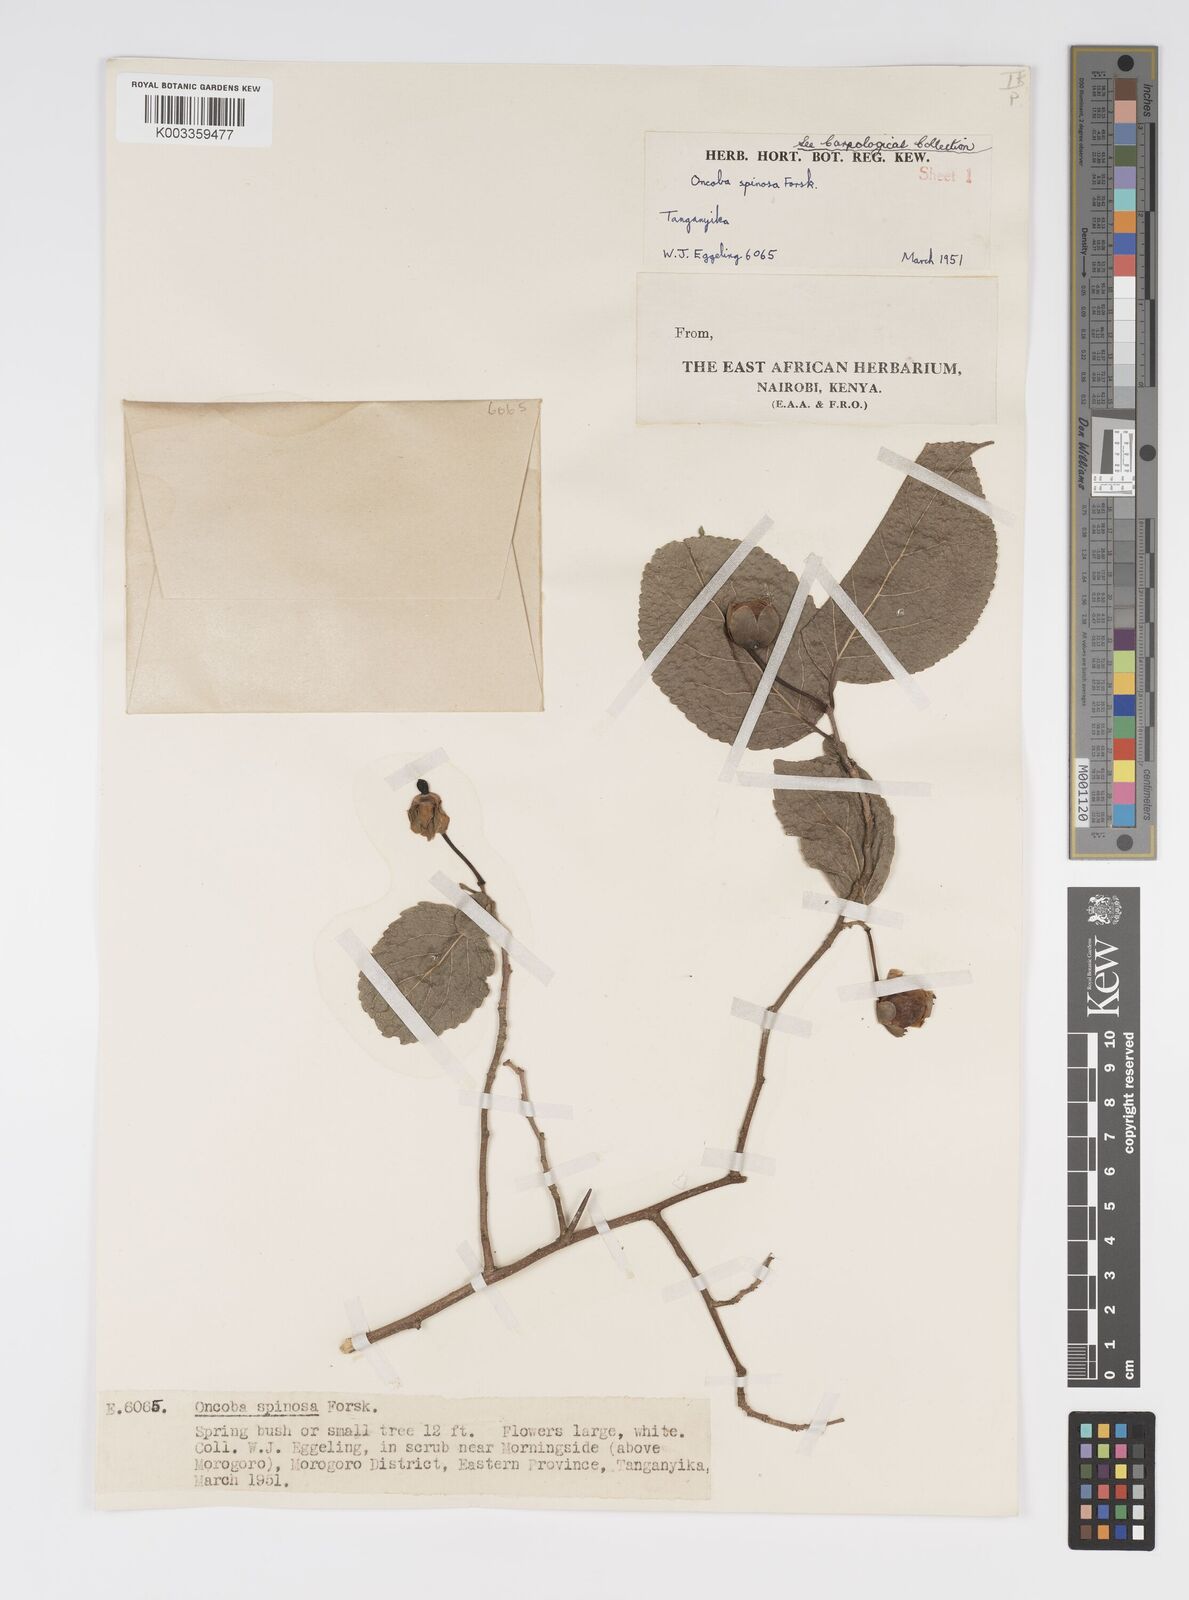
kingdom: Plantae
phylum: Tracheophyta
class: Magnoliopsida
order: Malpighiales
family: Salicaceae
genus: Oncoba
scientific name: Oncoba spinosa
